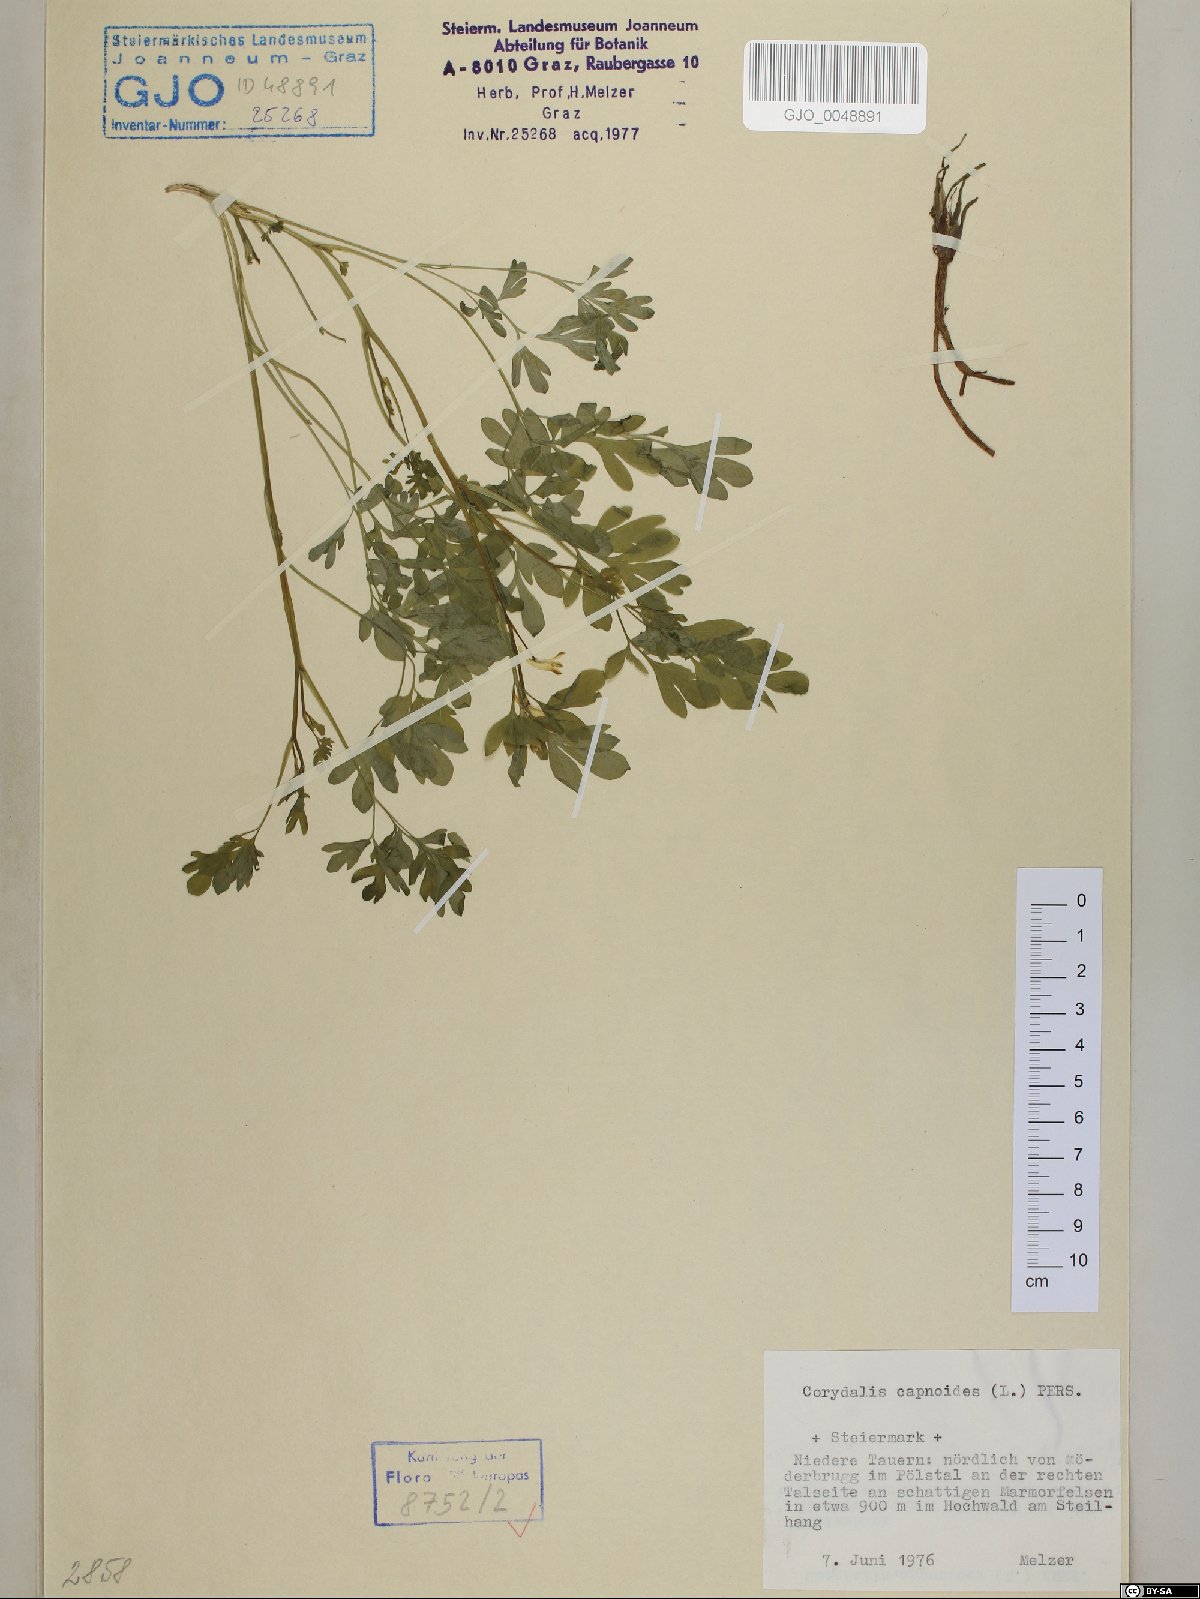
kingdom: Plantae
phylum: Tracheophyta
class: Magnoliopsida
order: Ranunculales
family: Papaveraceae
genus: Corydalis
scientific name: Corydalis capnoides
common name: Beaked corydalis
